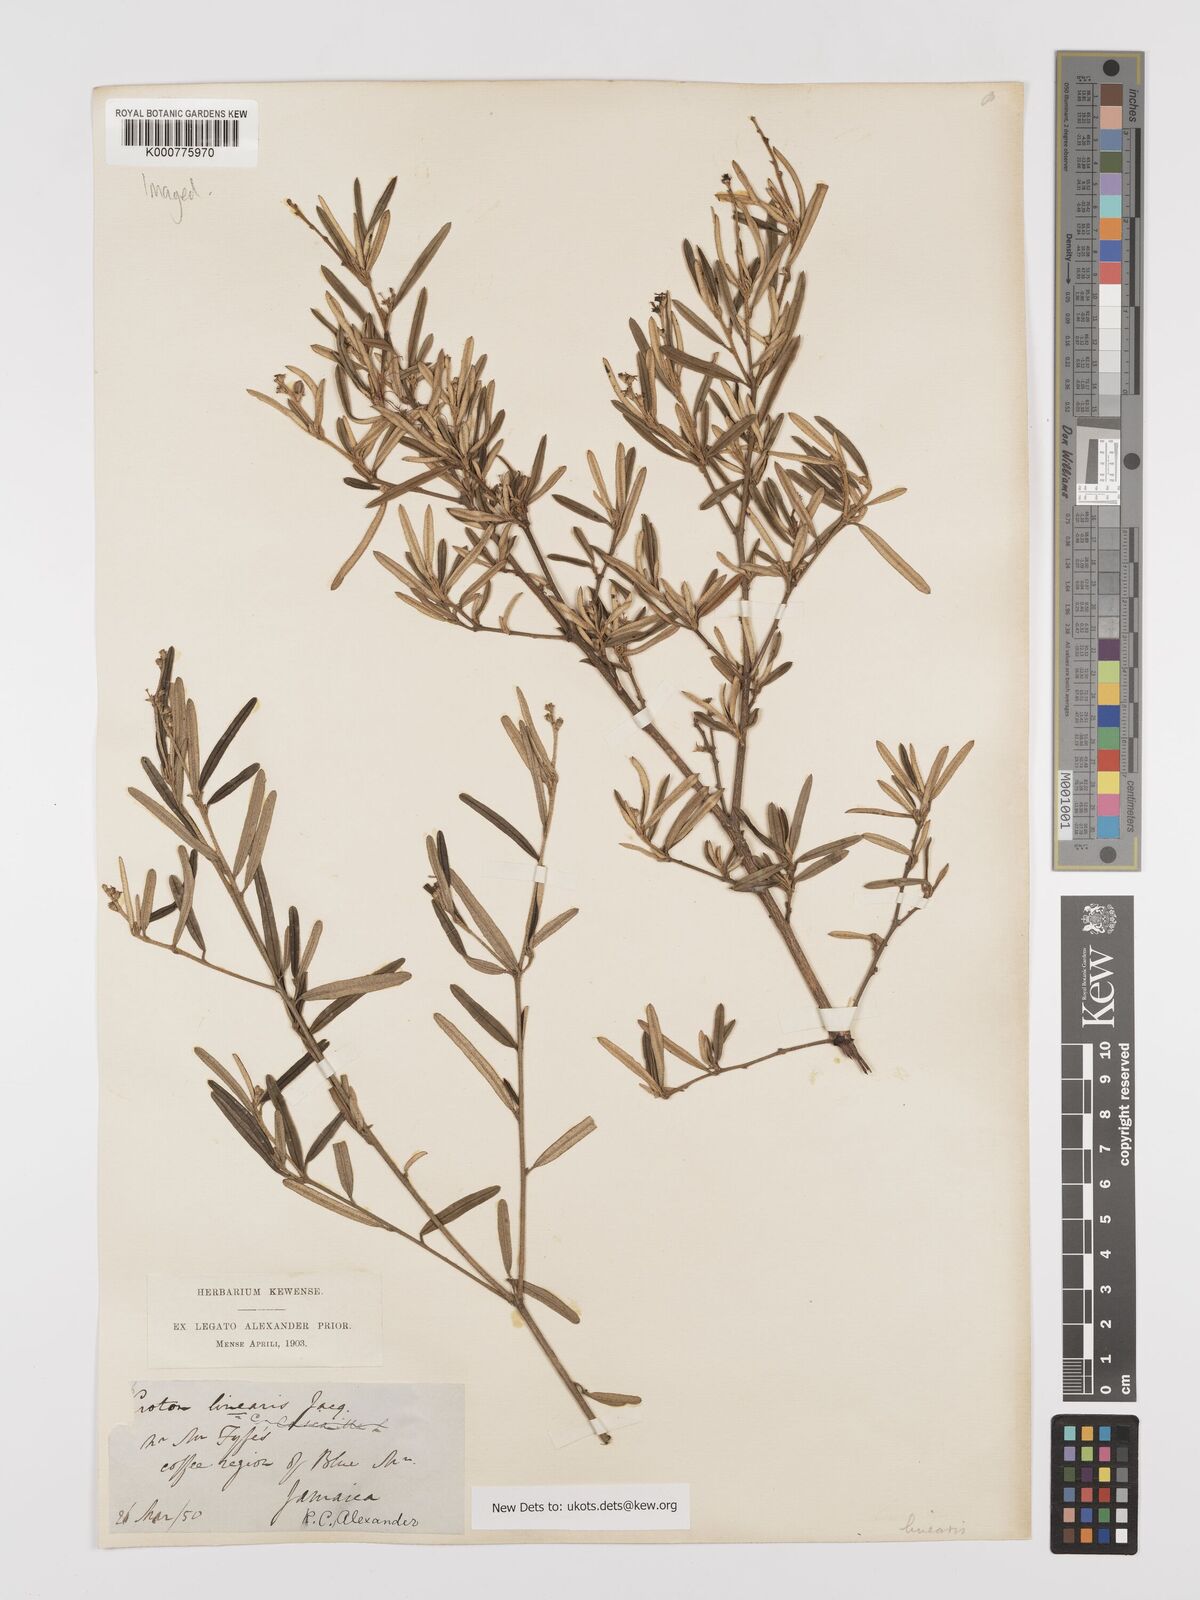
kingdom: Plantae
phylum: Tracheophyta
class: Magnoliopsida
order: Malpighiales
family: Euphorbiaceae
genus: Croton
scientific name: Croton linearis
